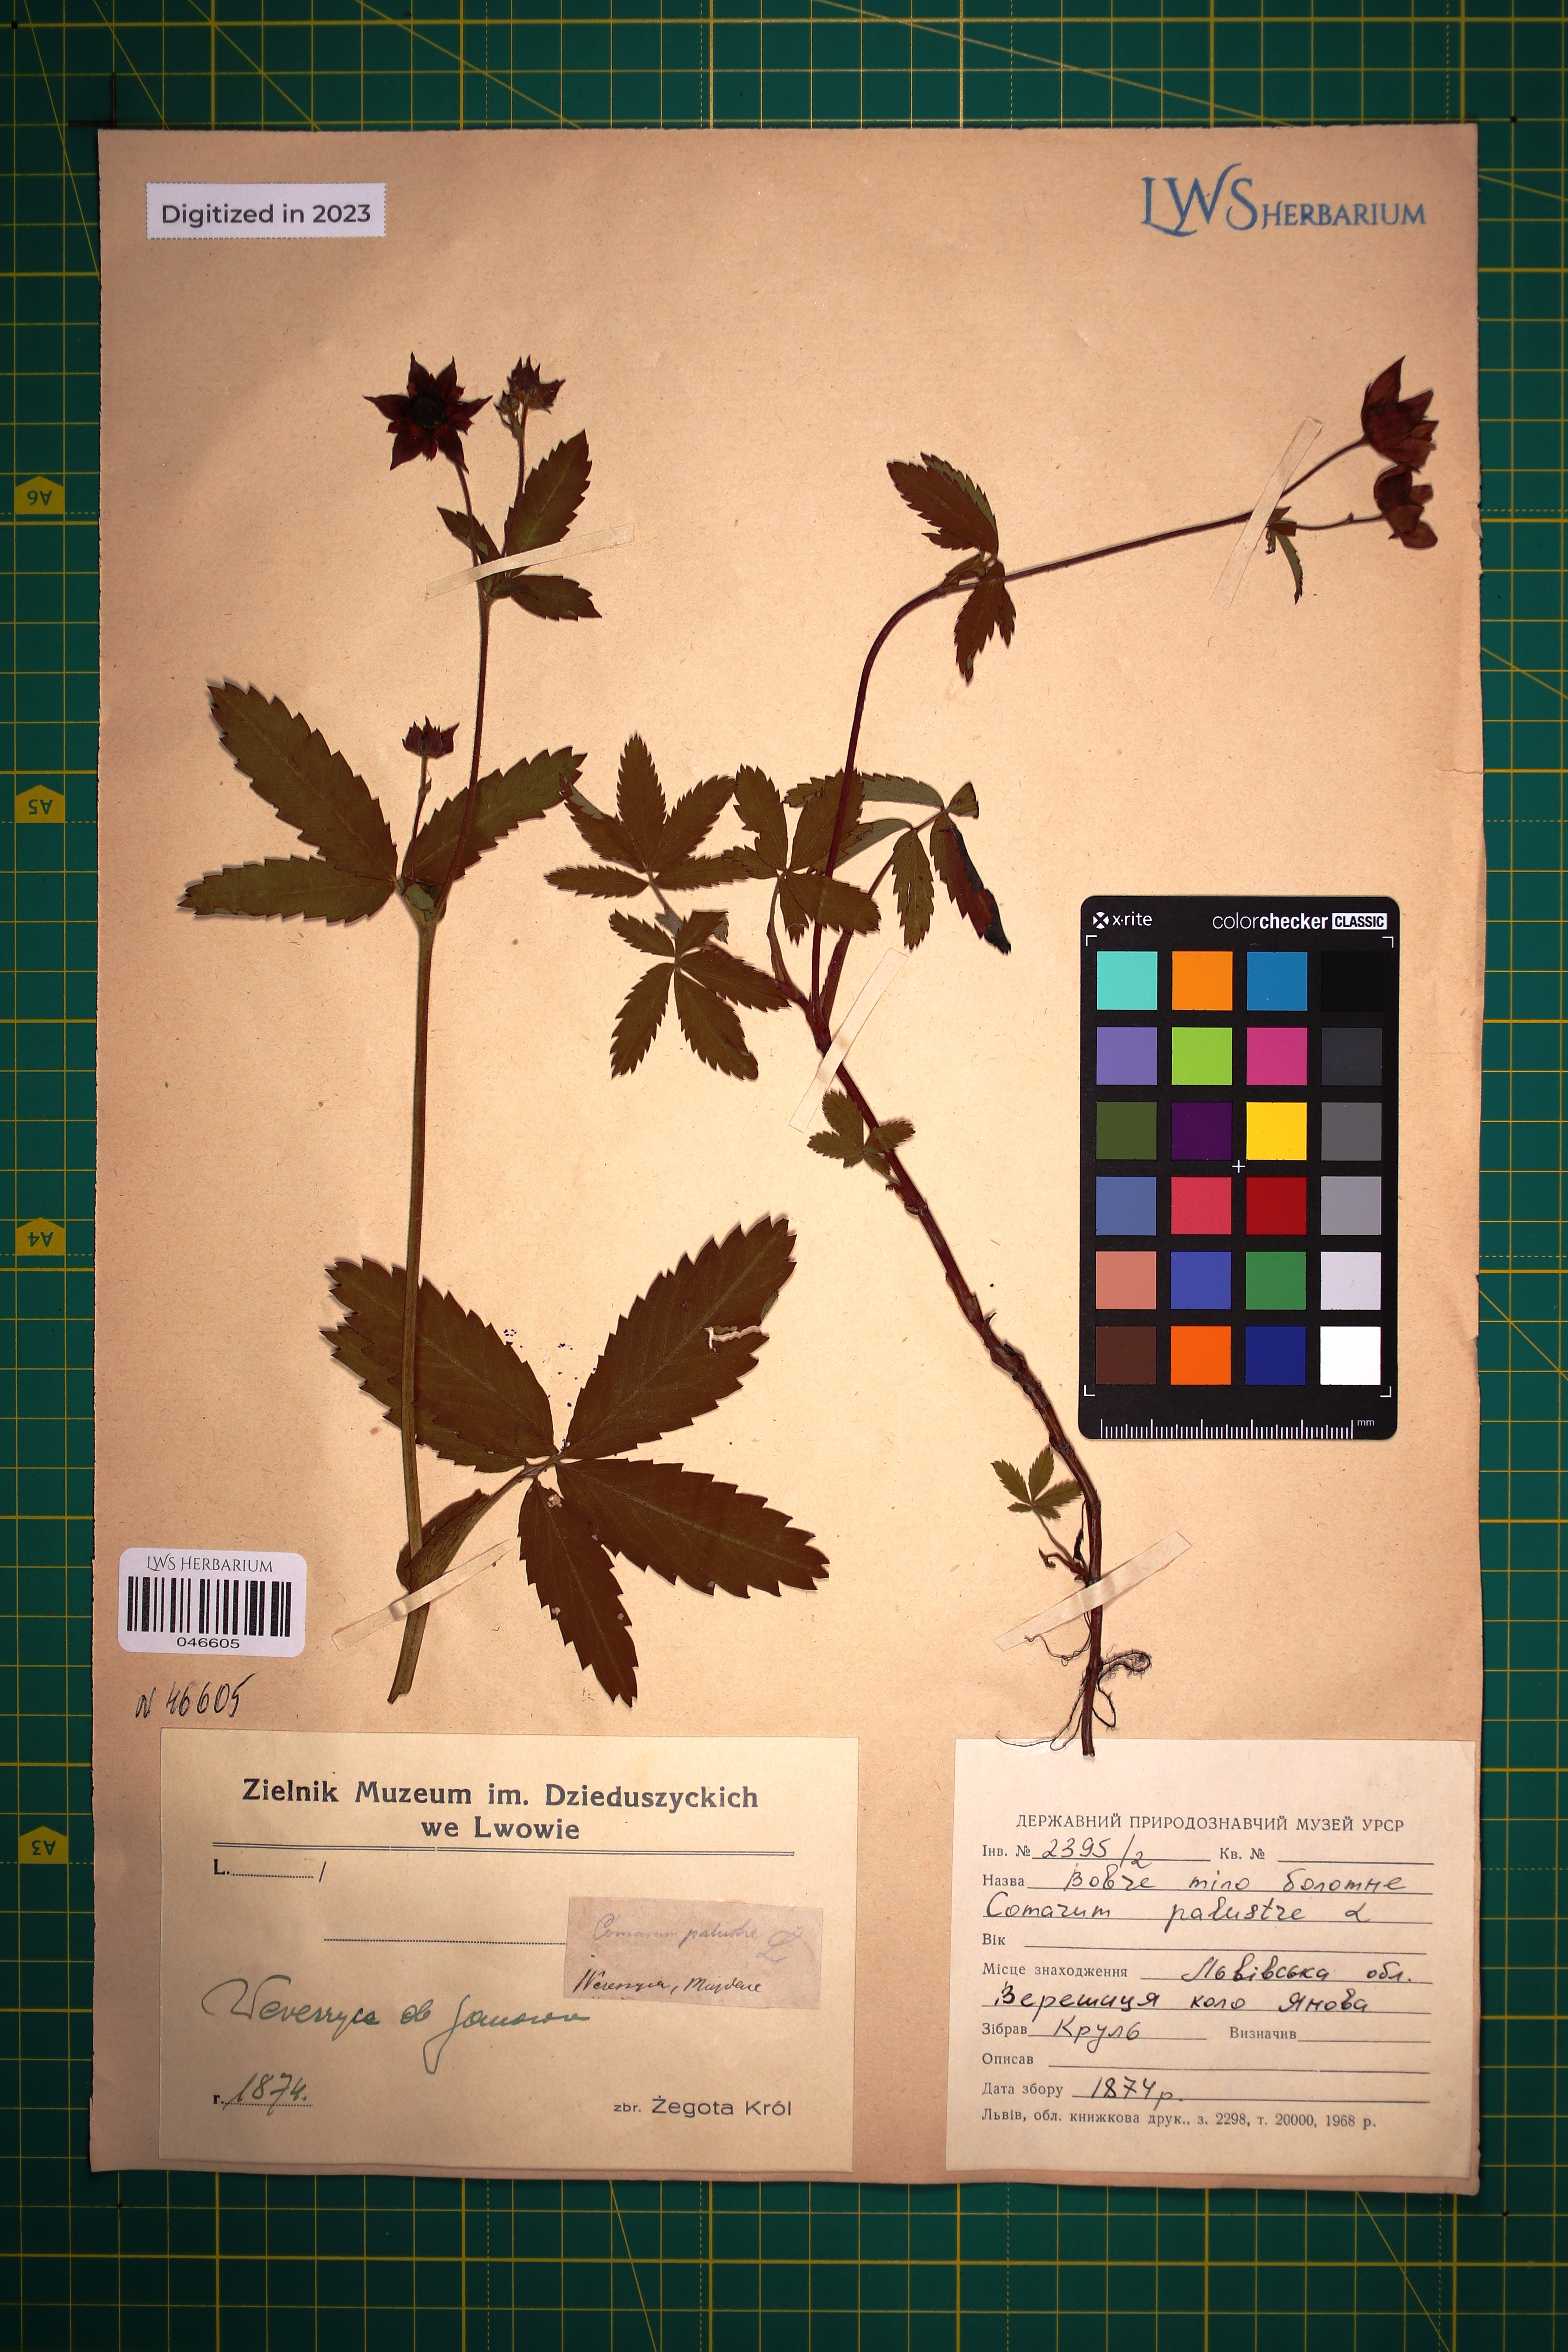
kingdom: Plantae
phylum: Tracheophyta
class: Magnoliopsida
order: Rosales
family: Rosaceae
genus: Comarum
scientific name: Comarum palustre
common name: Marsh cinquefoil
